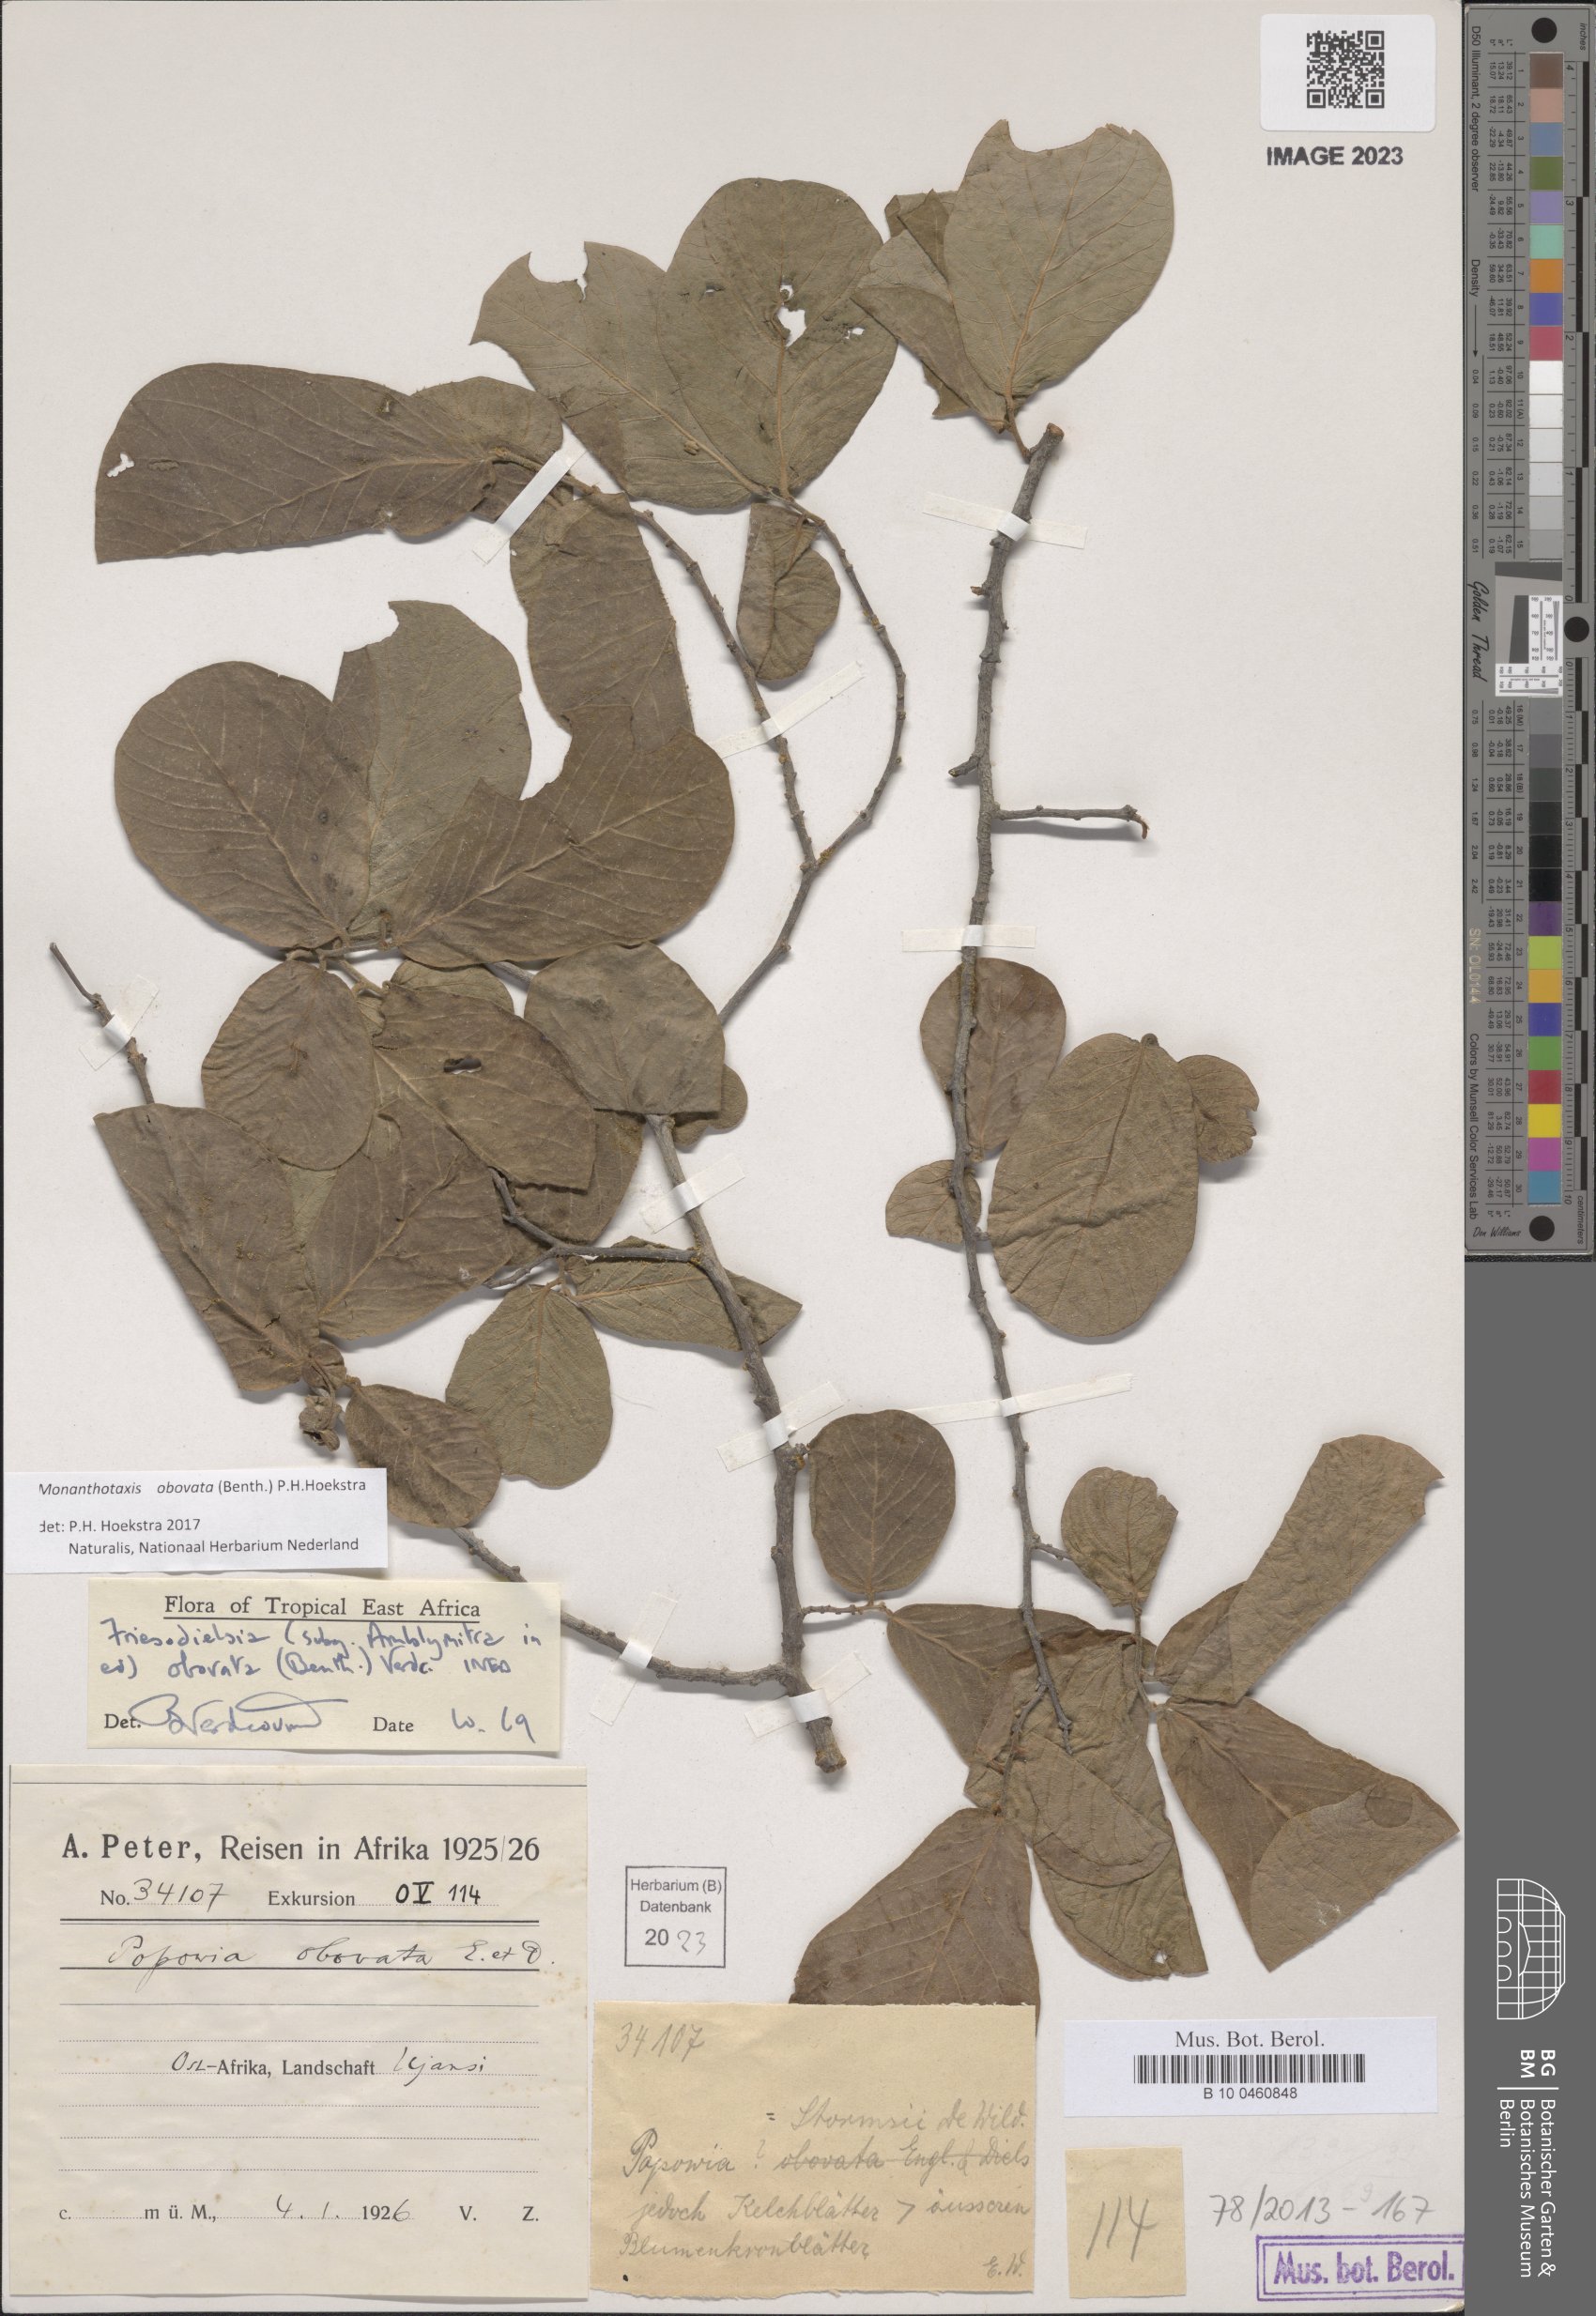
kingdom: Plantae
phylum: Tracheophyta
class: Magnoliopsida
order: Magnoliales
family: Annonaceae
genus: Friesodielsia
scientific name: Friesodielsia obovata
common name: Monkey fingers
